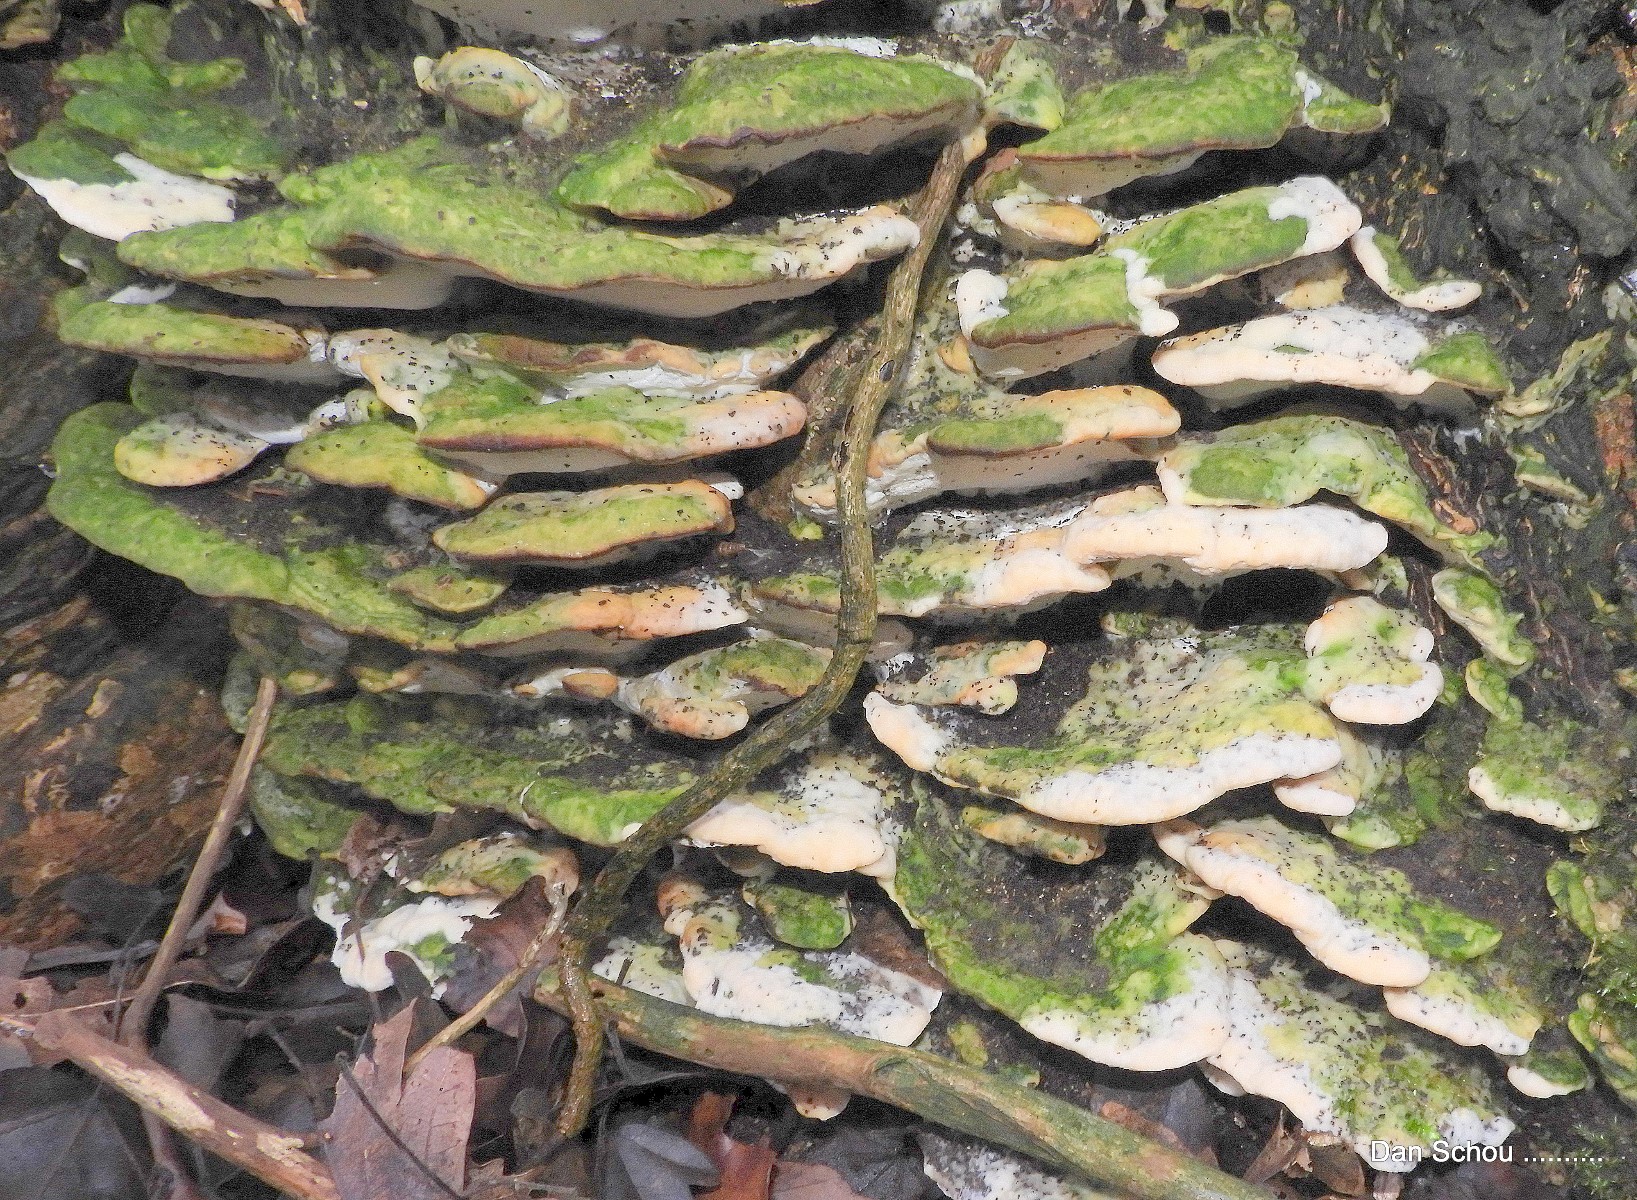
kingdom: Fungi
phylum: Basidiomycota
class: Agaricomycetes
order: Hymenochaetales
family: Oxyporaceae
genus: Oxyporus
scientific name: Oxyporus populinus
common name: sammenvokset trylleporesvamp
